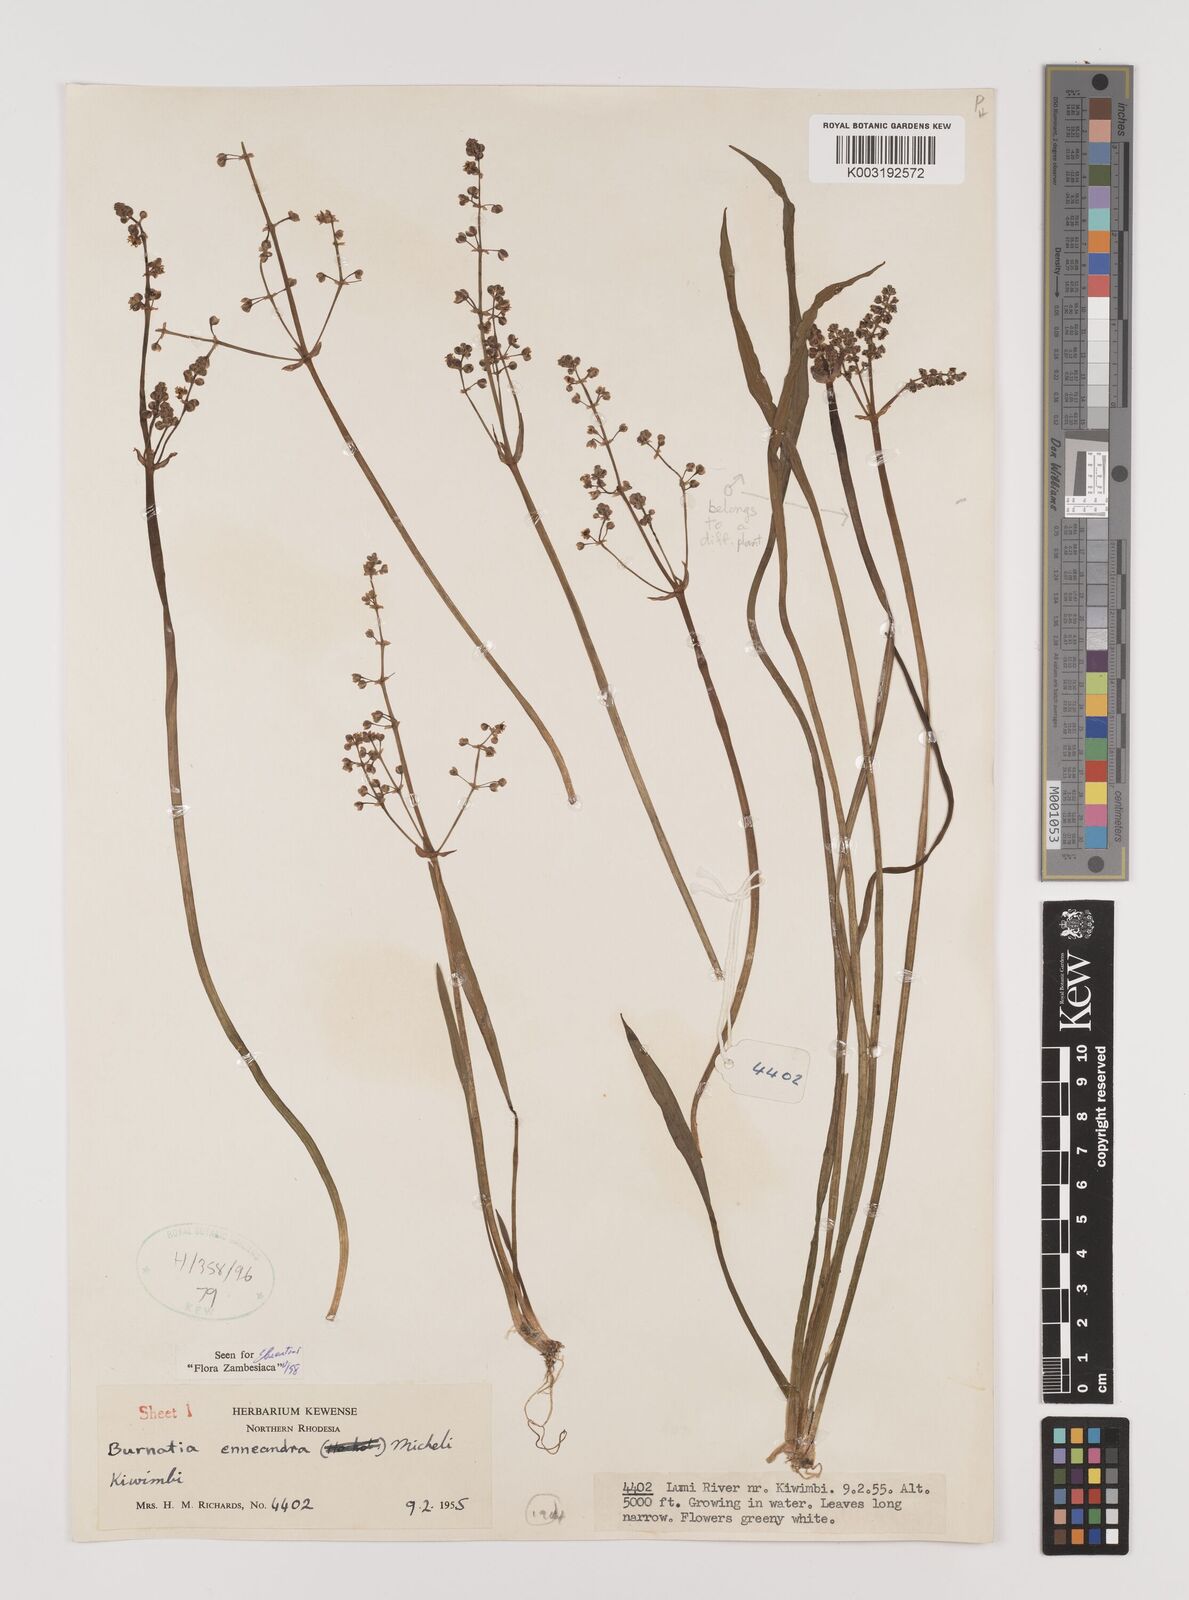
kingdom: Plantae
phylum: Tracheophyta
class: Liliopsida
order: Alismatales
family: Alismataceae
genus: Burnatia
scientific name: Burnatia enneandra
